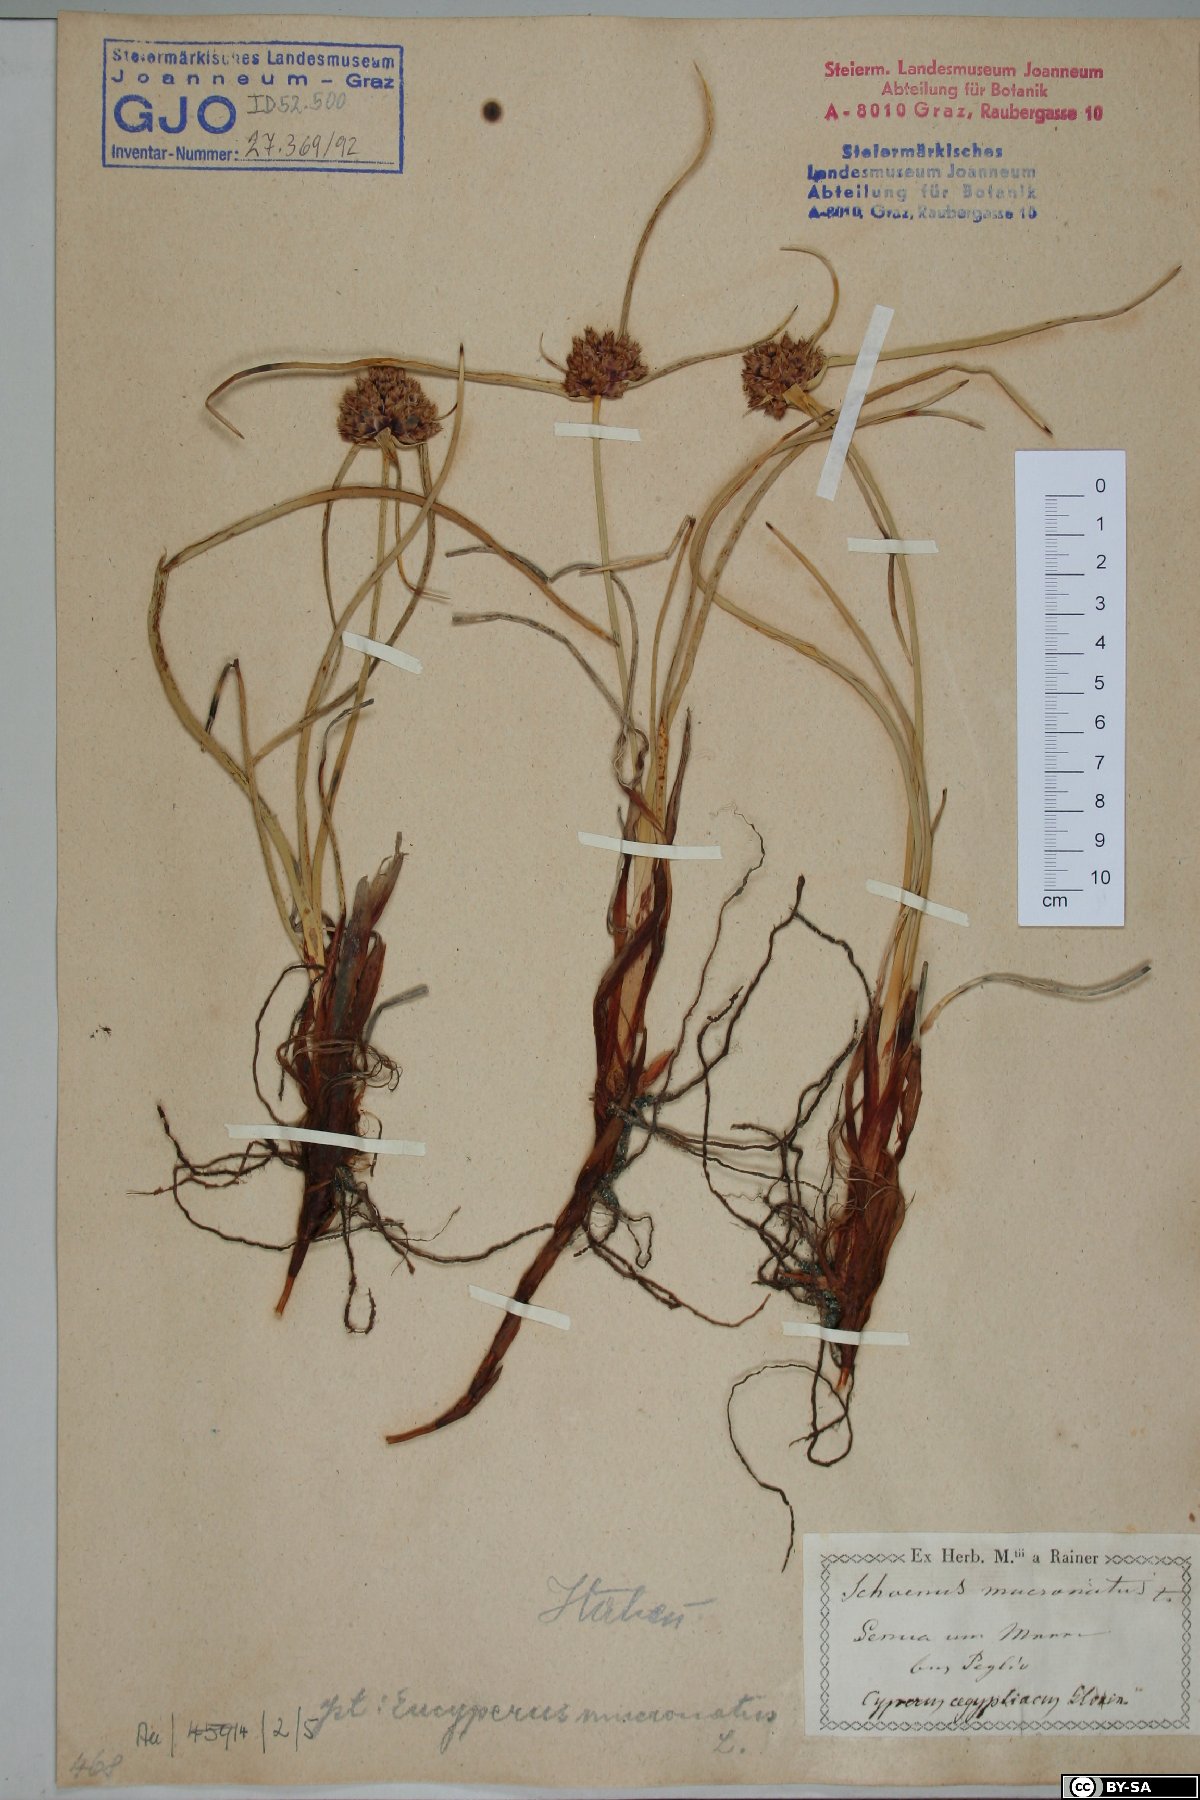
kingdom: Plantae
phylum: Tracheophyta
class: Liliopsida
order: Poales
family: Cyperaceae
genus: Cyperus
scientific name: Cyperus capitatus
